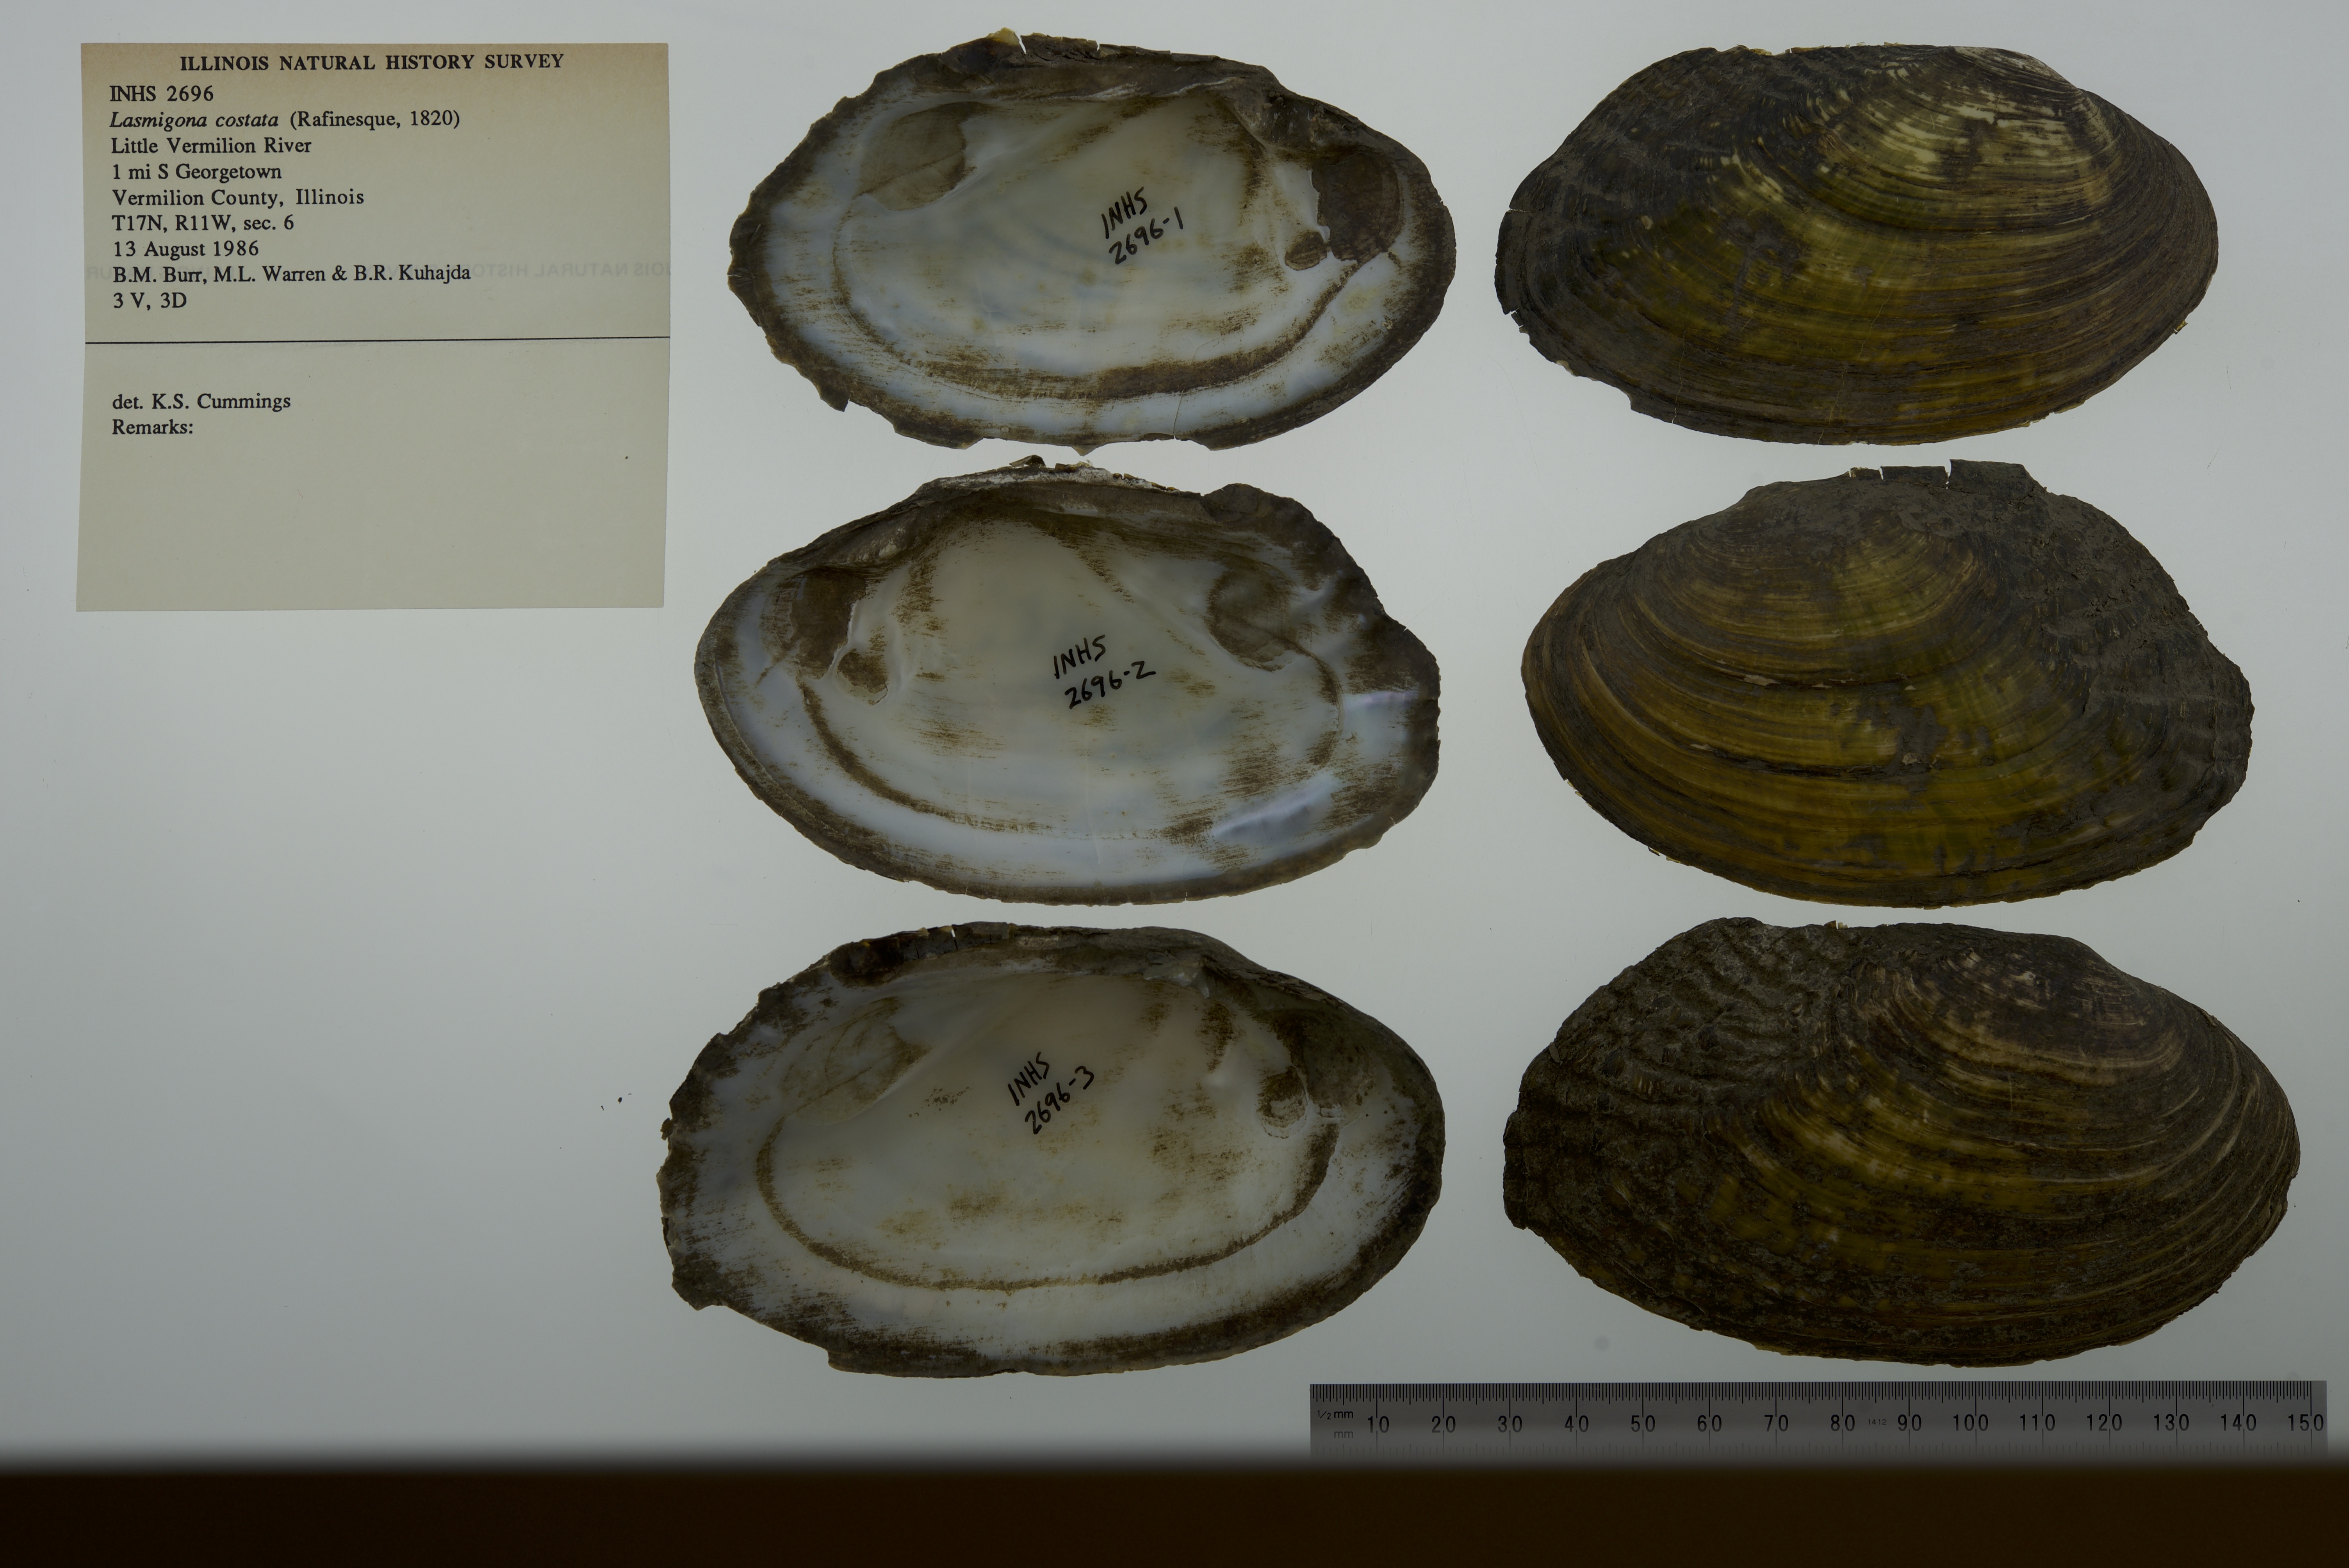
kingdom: Animalia
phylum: Mollusca
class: Bivalvia
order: Unionida
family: Unionidae
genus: Lasmigona
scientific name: Lasmigona costata
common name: Flutedshell
